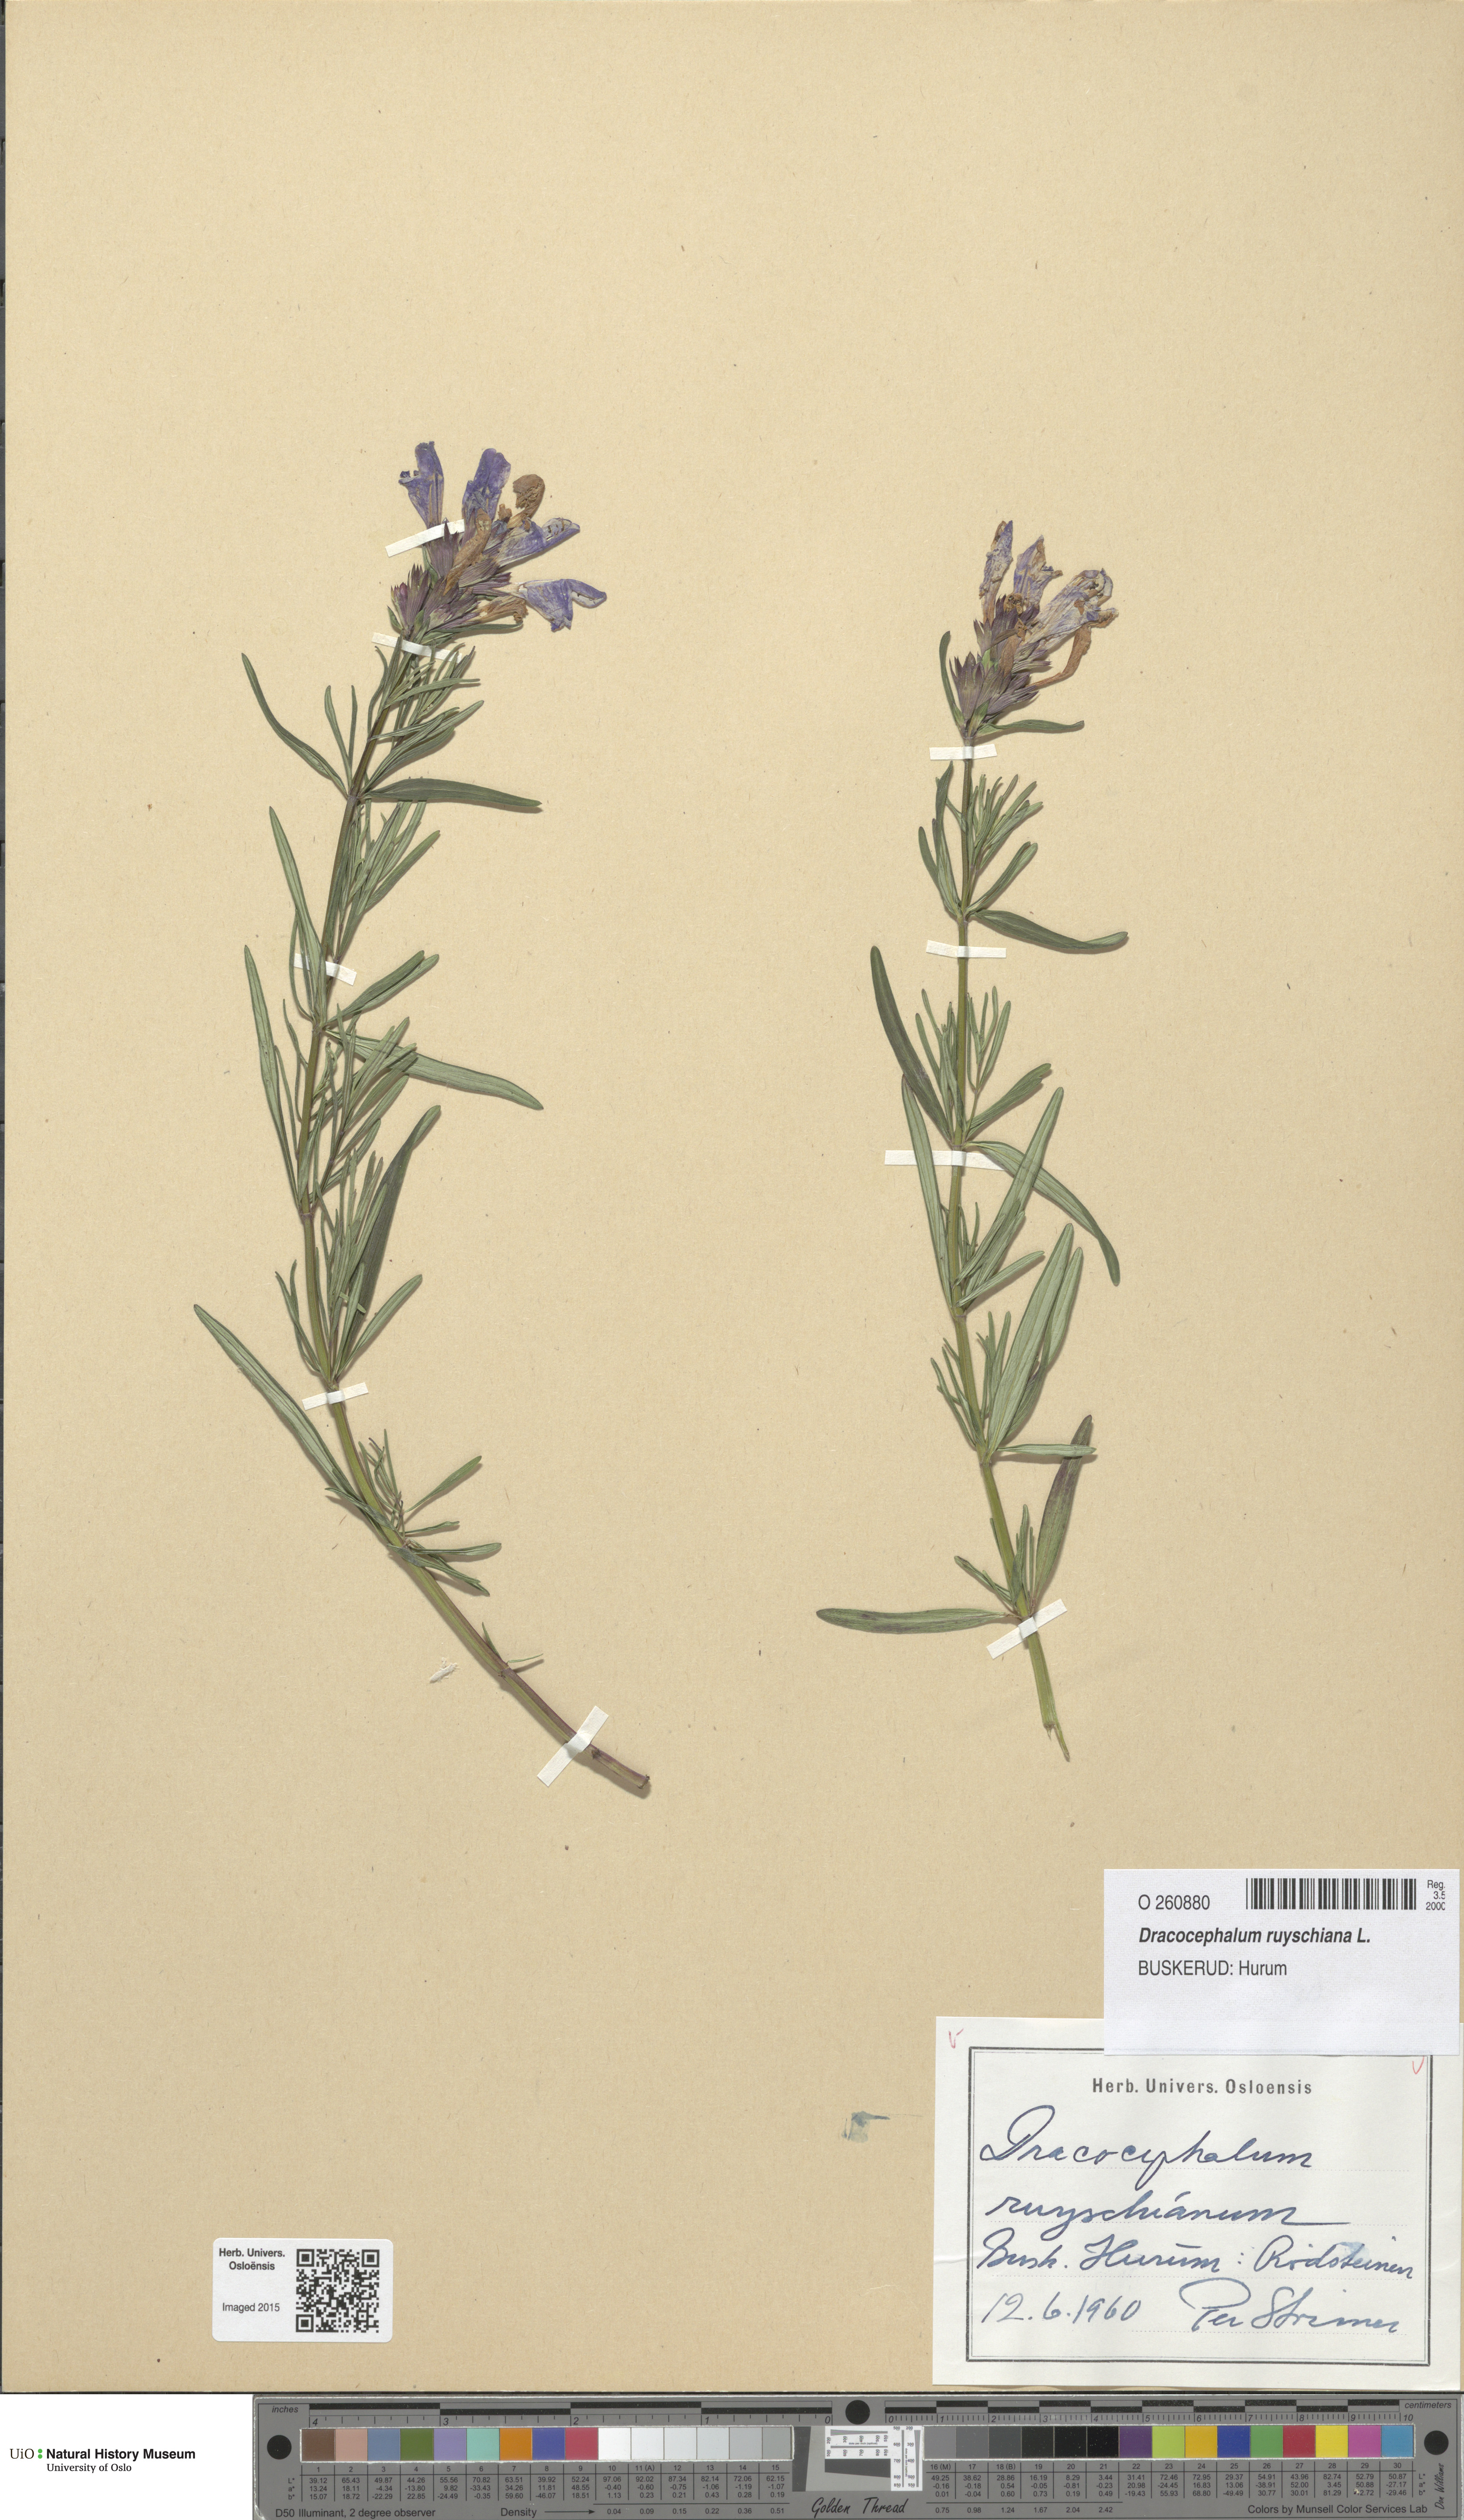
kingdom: Plantae
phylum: Tracheophyta
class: Magnoliopsida
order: Lamiales
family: Lamiaceae
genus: Dracocephalum
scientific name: Dracocephalum ruyschiana
